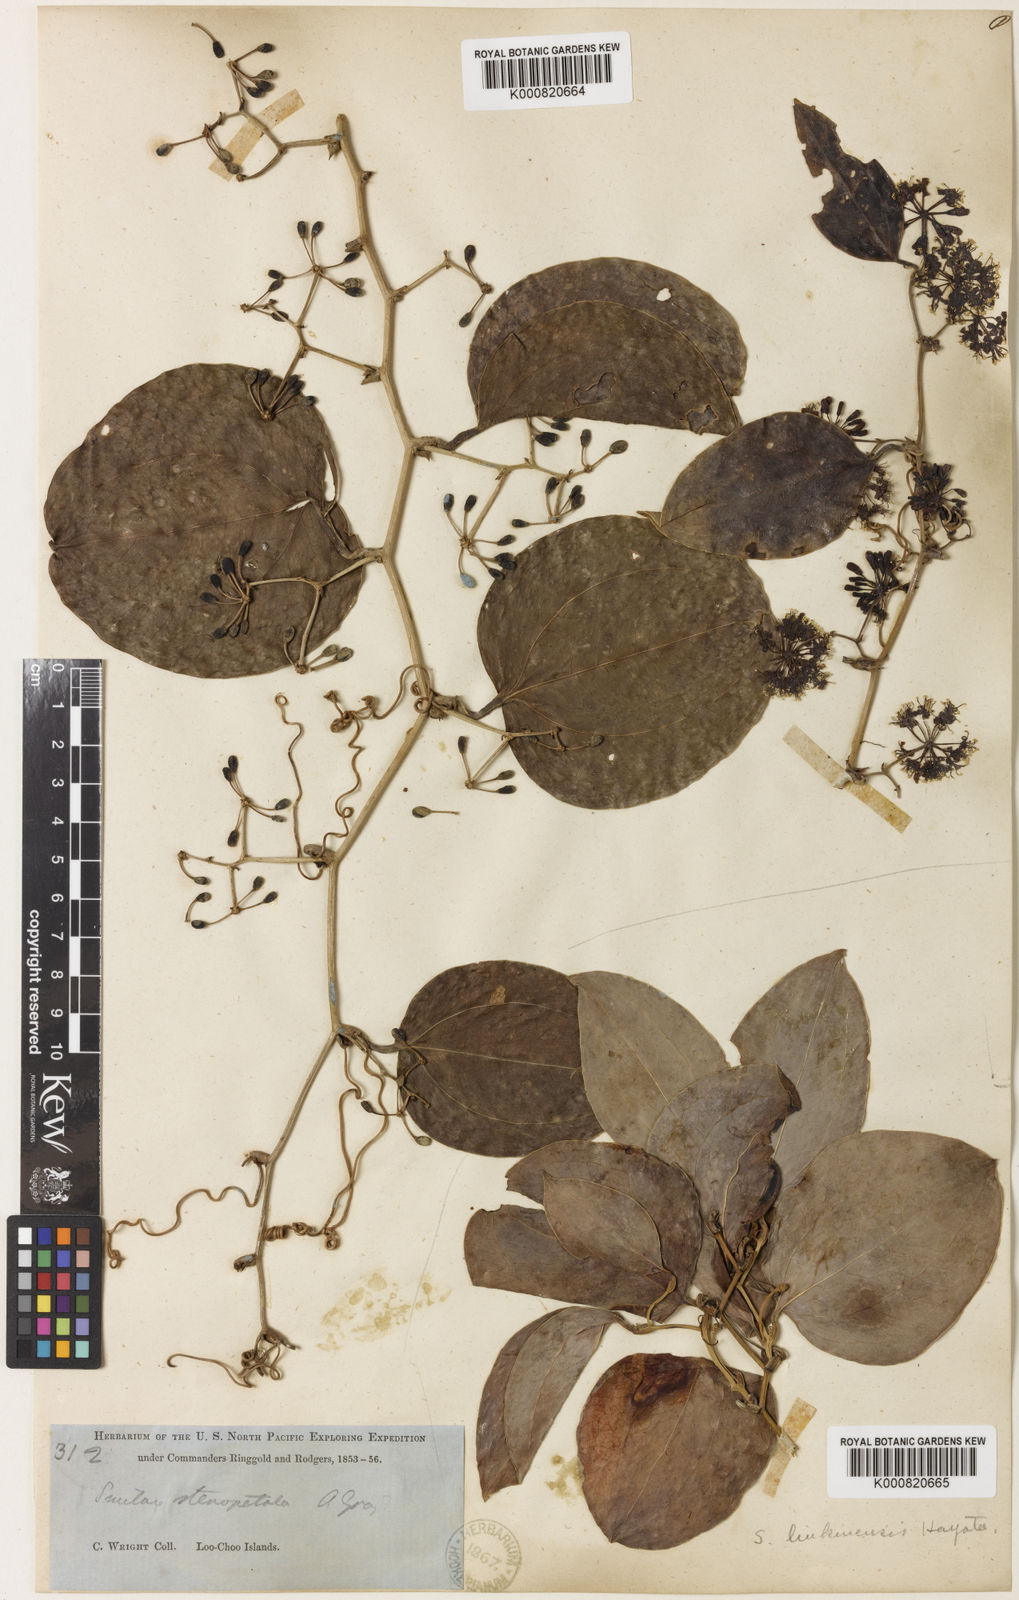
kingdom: Plantae
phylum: Tracheophyta
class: Liliopsida
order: Liliales
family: Smilacaceae
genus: Smilax
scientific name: Smilax bracteata
